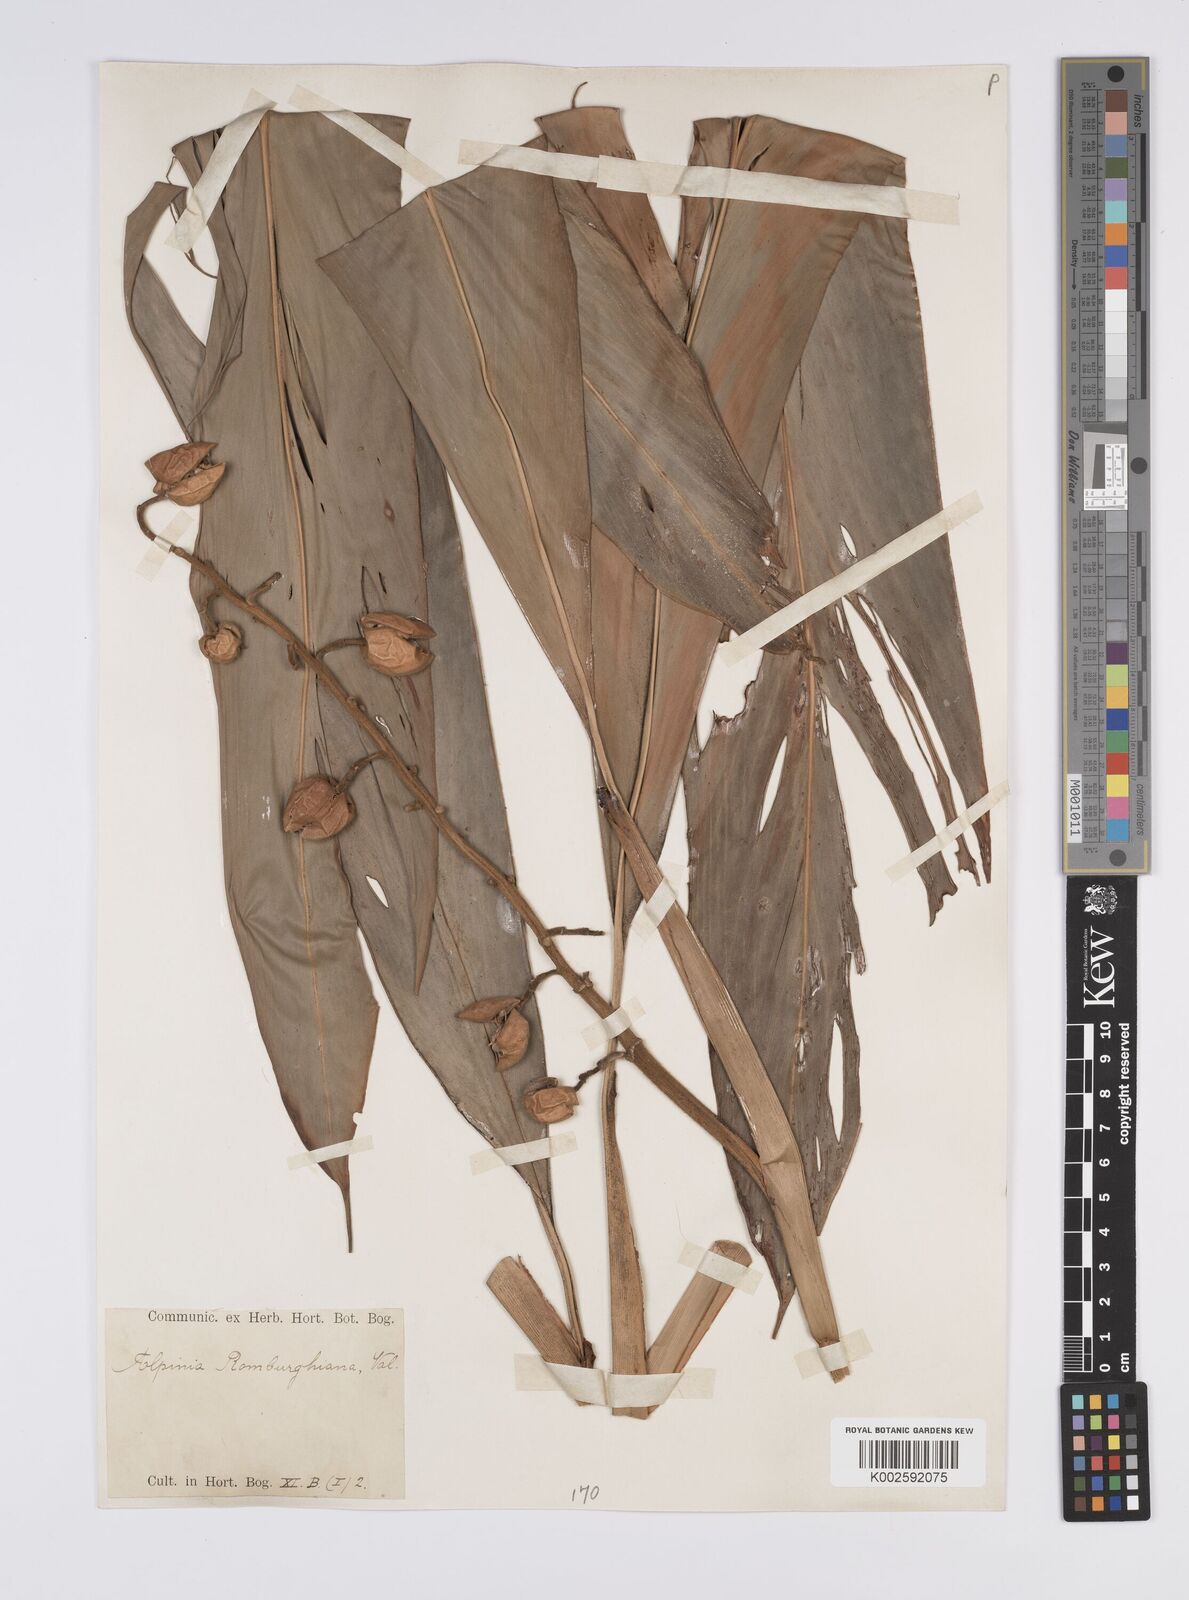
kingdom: Plantae
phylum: Tracheophyta
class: Liliopsida
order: Zingiberales
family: Zingiberaceae
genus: Alpinia
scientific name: Alpinia romburghiana
